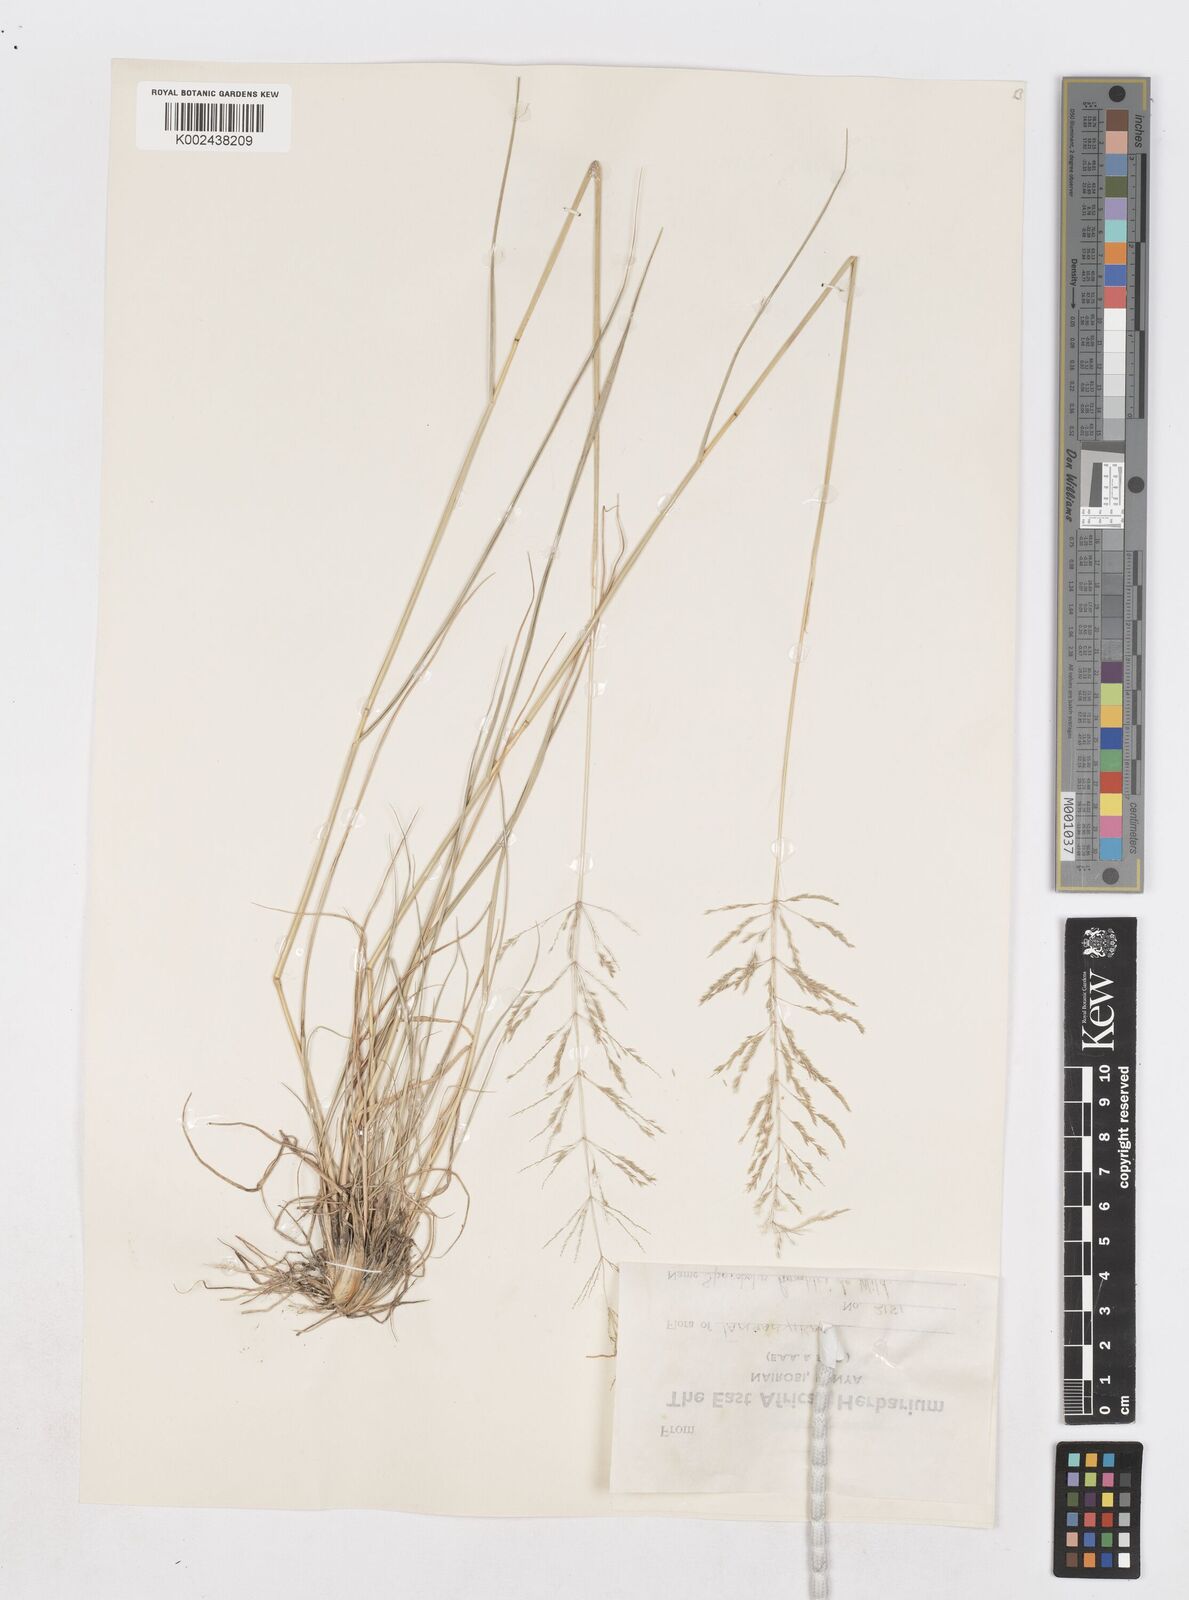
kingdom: Plantae
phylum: Tracheophyta
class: Liliopsida
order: Poales
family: Poaceae
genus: Sporobolus
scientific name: Sporobolus ioclados
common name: Pan dropseed
